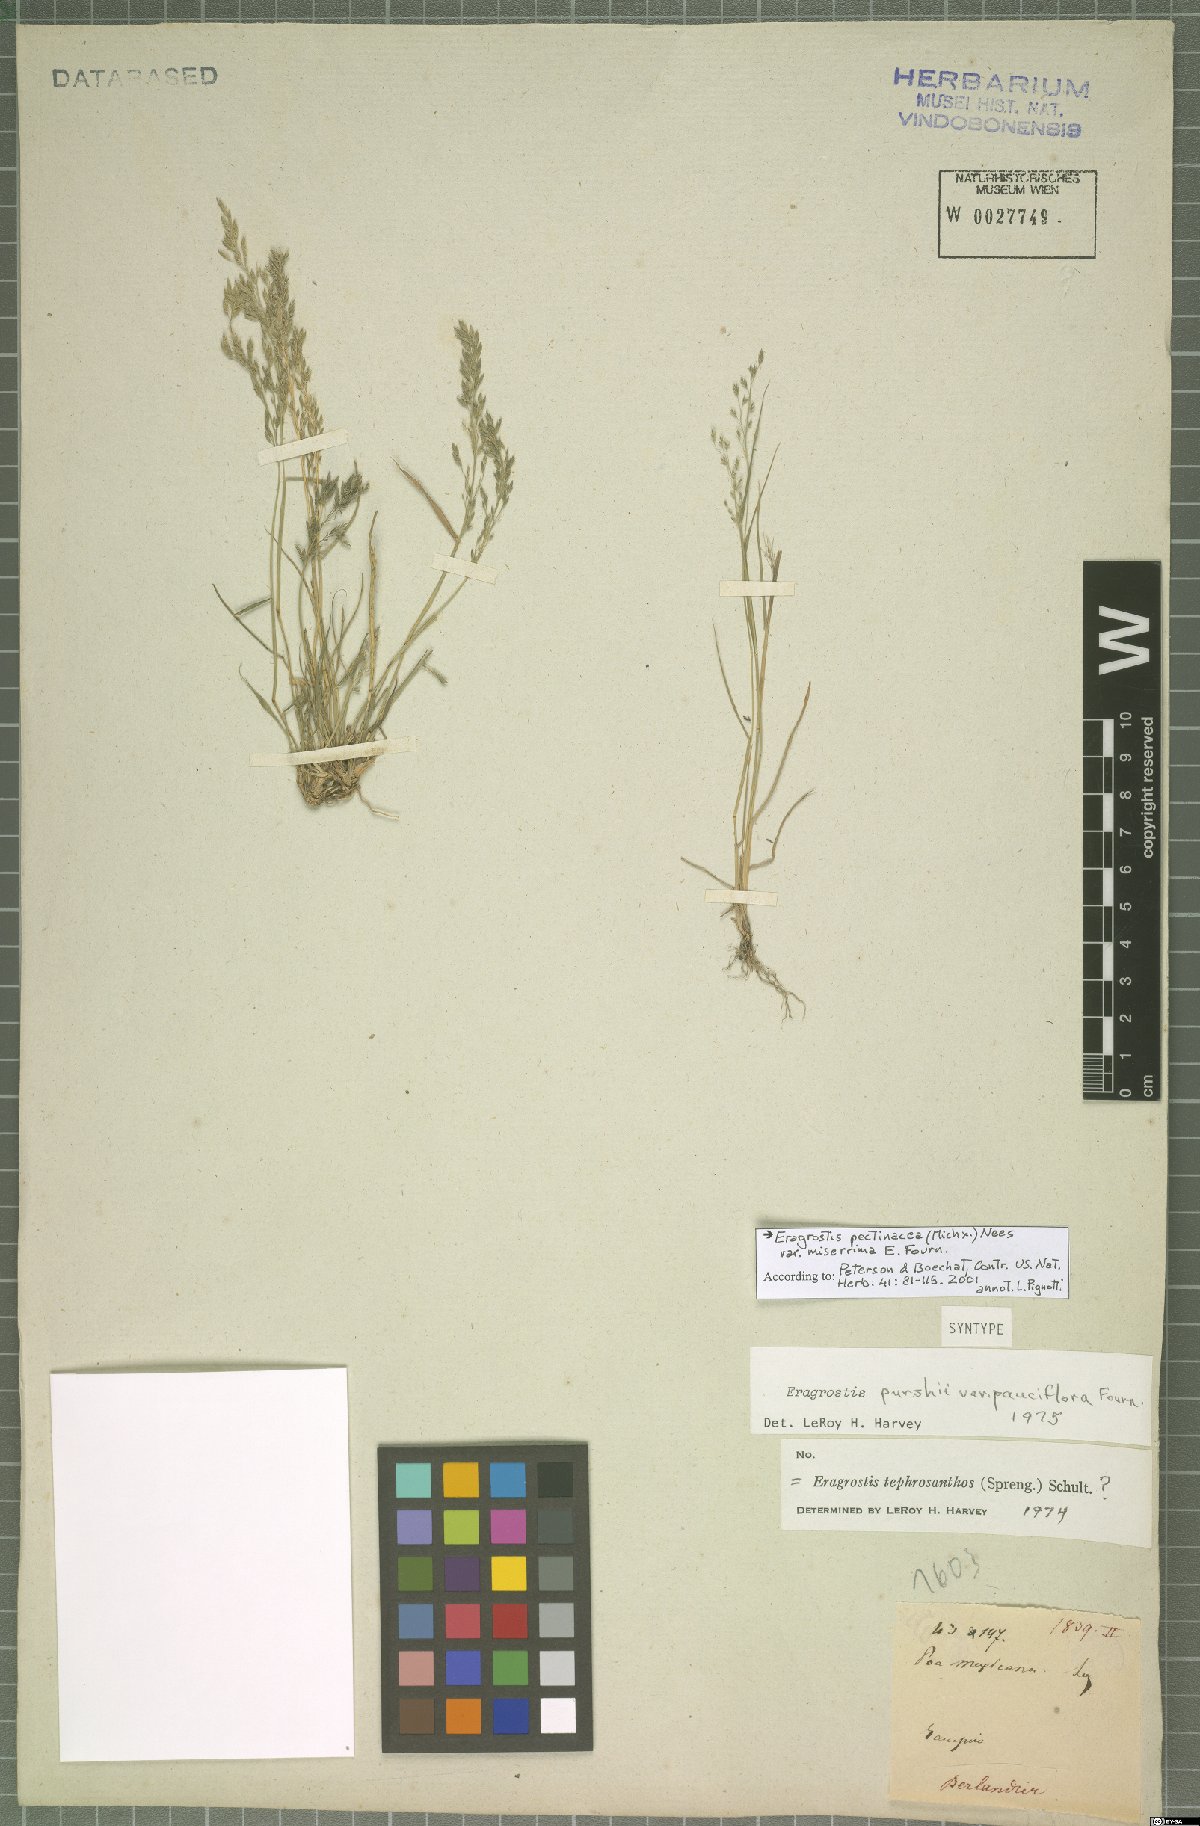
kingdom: Plantae
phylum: Tracheophyta
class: Liliopsida
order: Poales
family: Poaceae
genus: Eragrostis
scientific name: Eragrostis tephrosanthos
